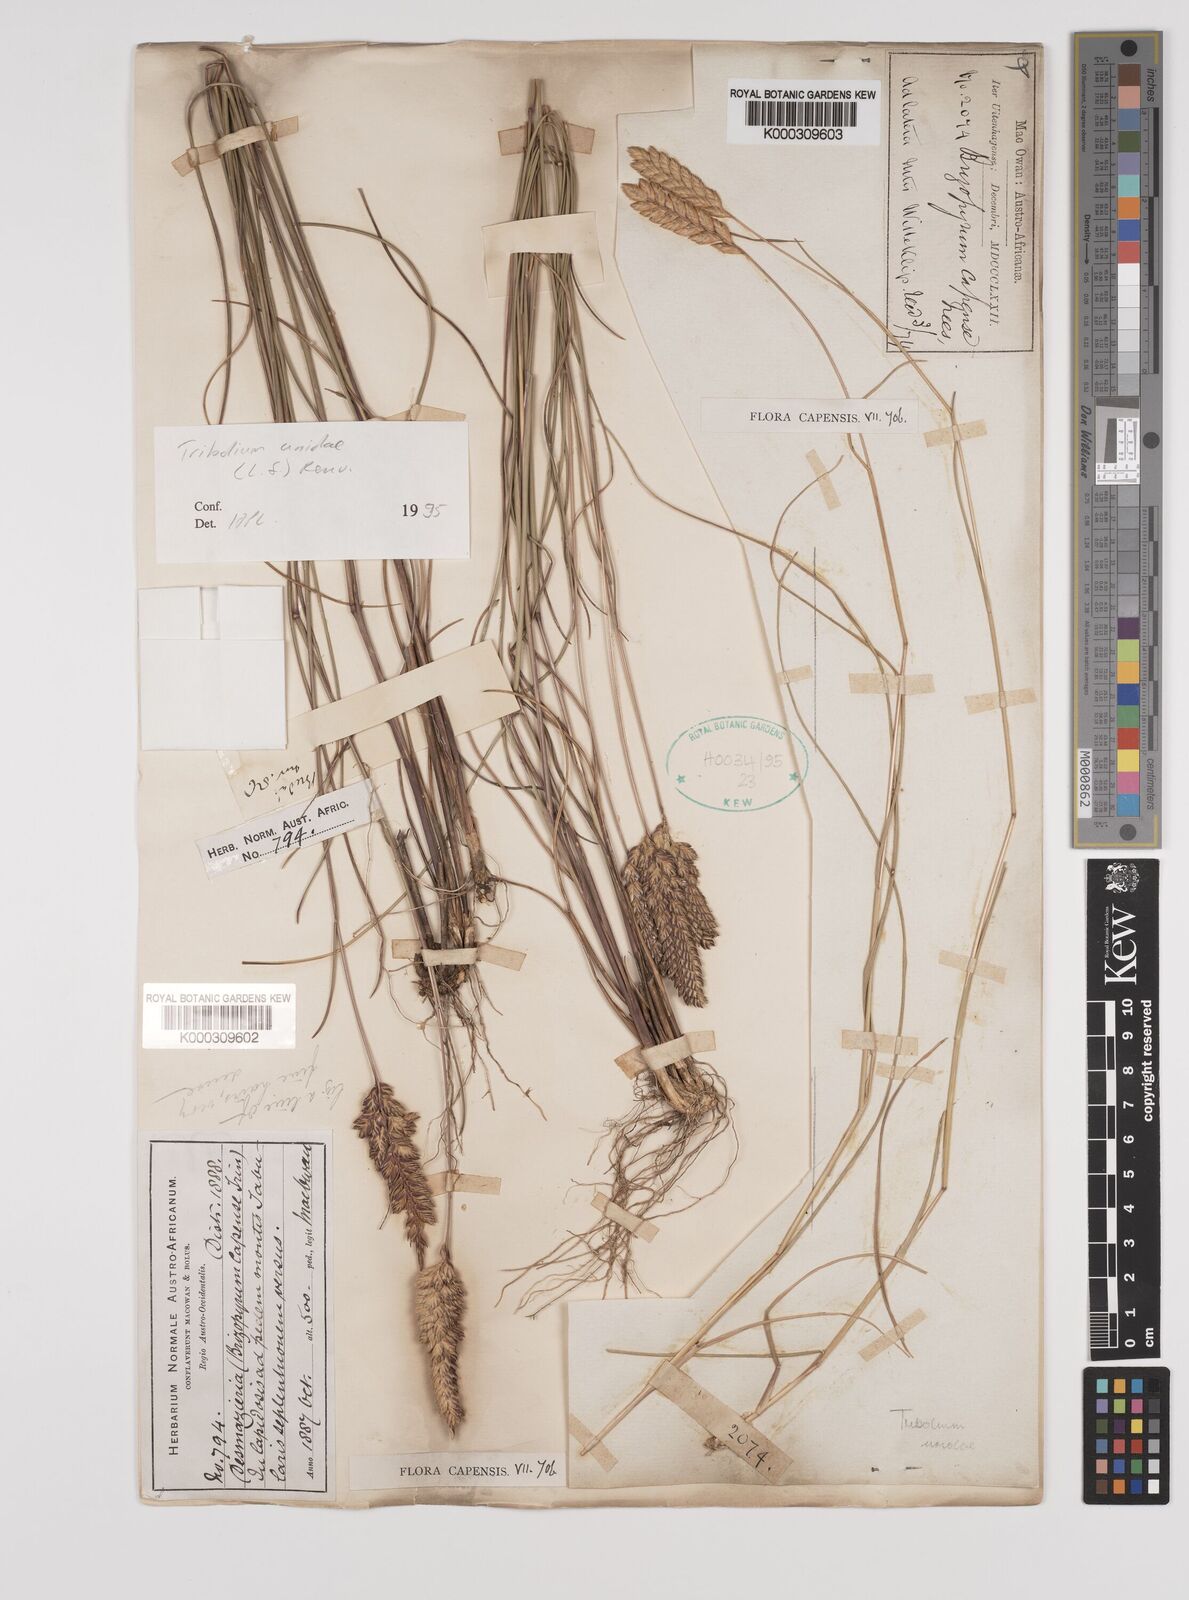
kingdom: Plantae
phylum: Tracheophyta
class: Liliopsida
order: Poales
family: Poaceae
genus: Tribolium
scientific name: Tribolium uniolae
